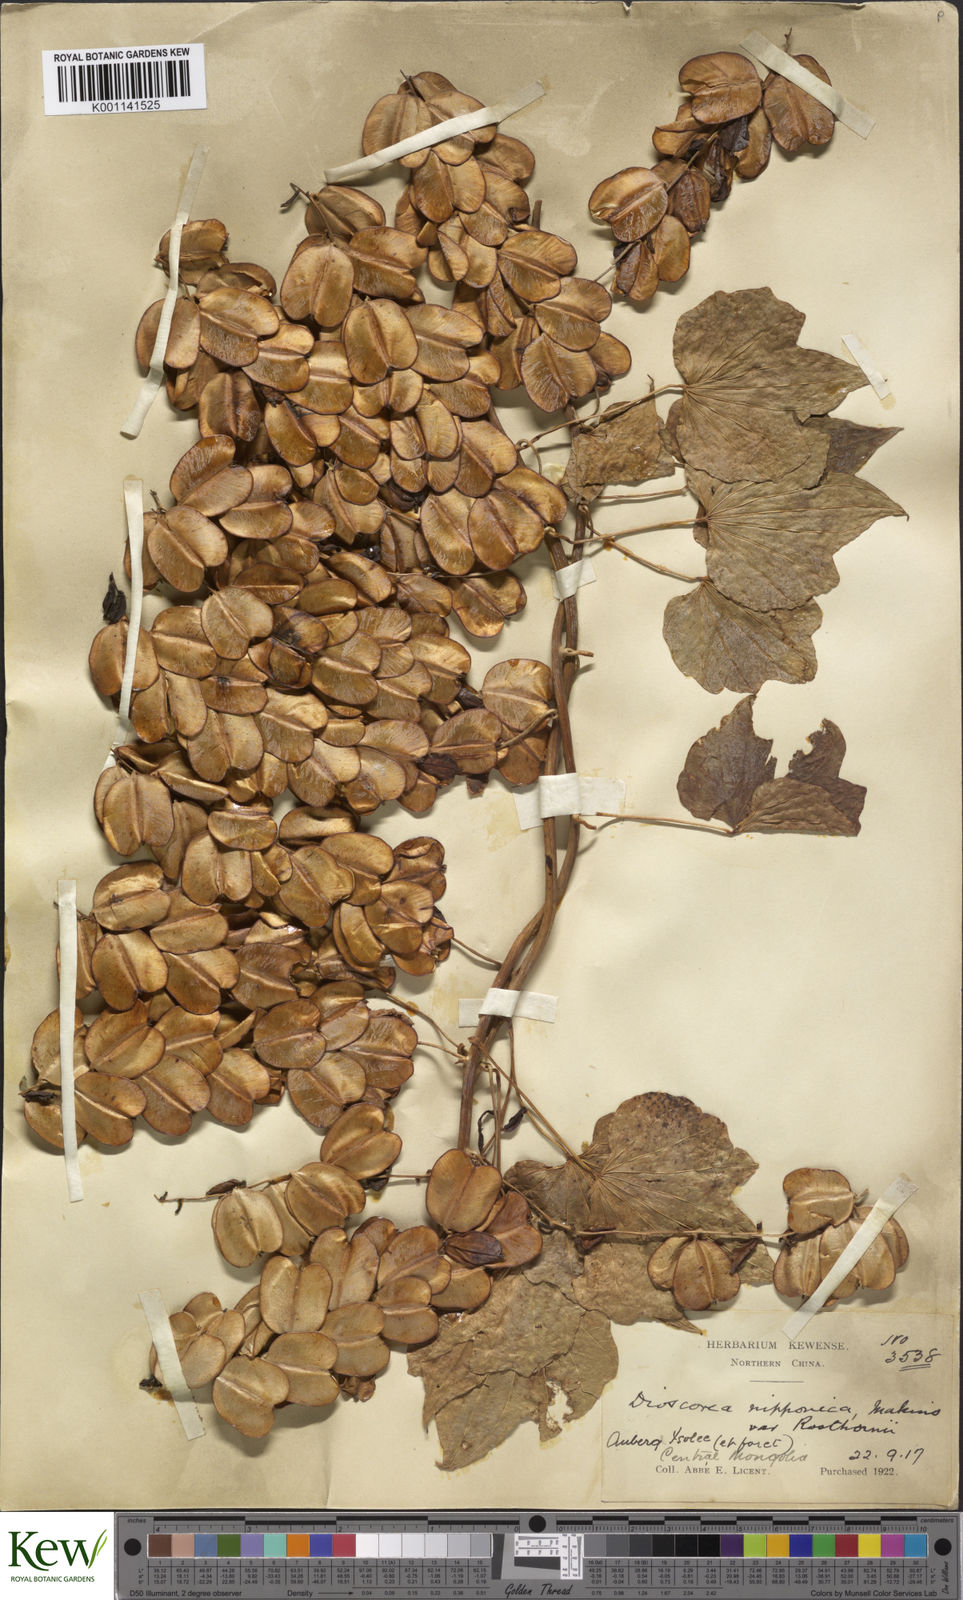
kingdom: Plantae
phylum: Tracheophyta
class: Liliopsida
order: Dioscoreales
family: Dioscoreaceae
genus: Dioscorea
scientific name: Dioscorea nipponica
